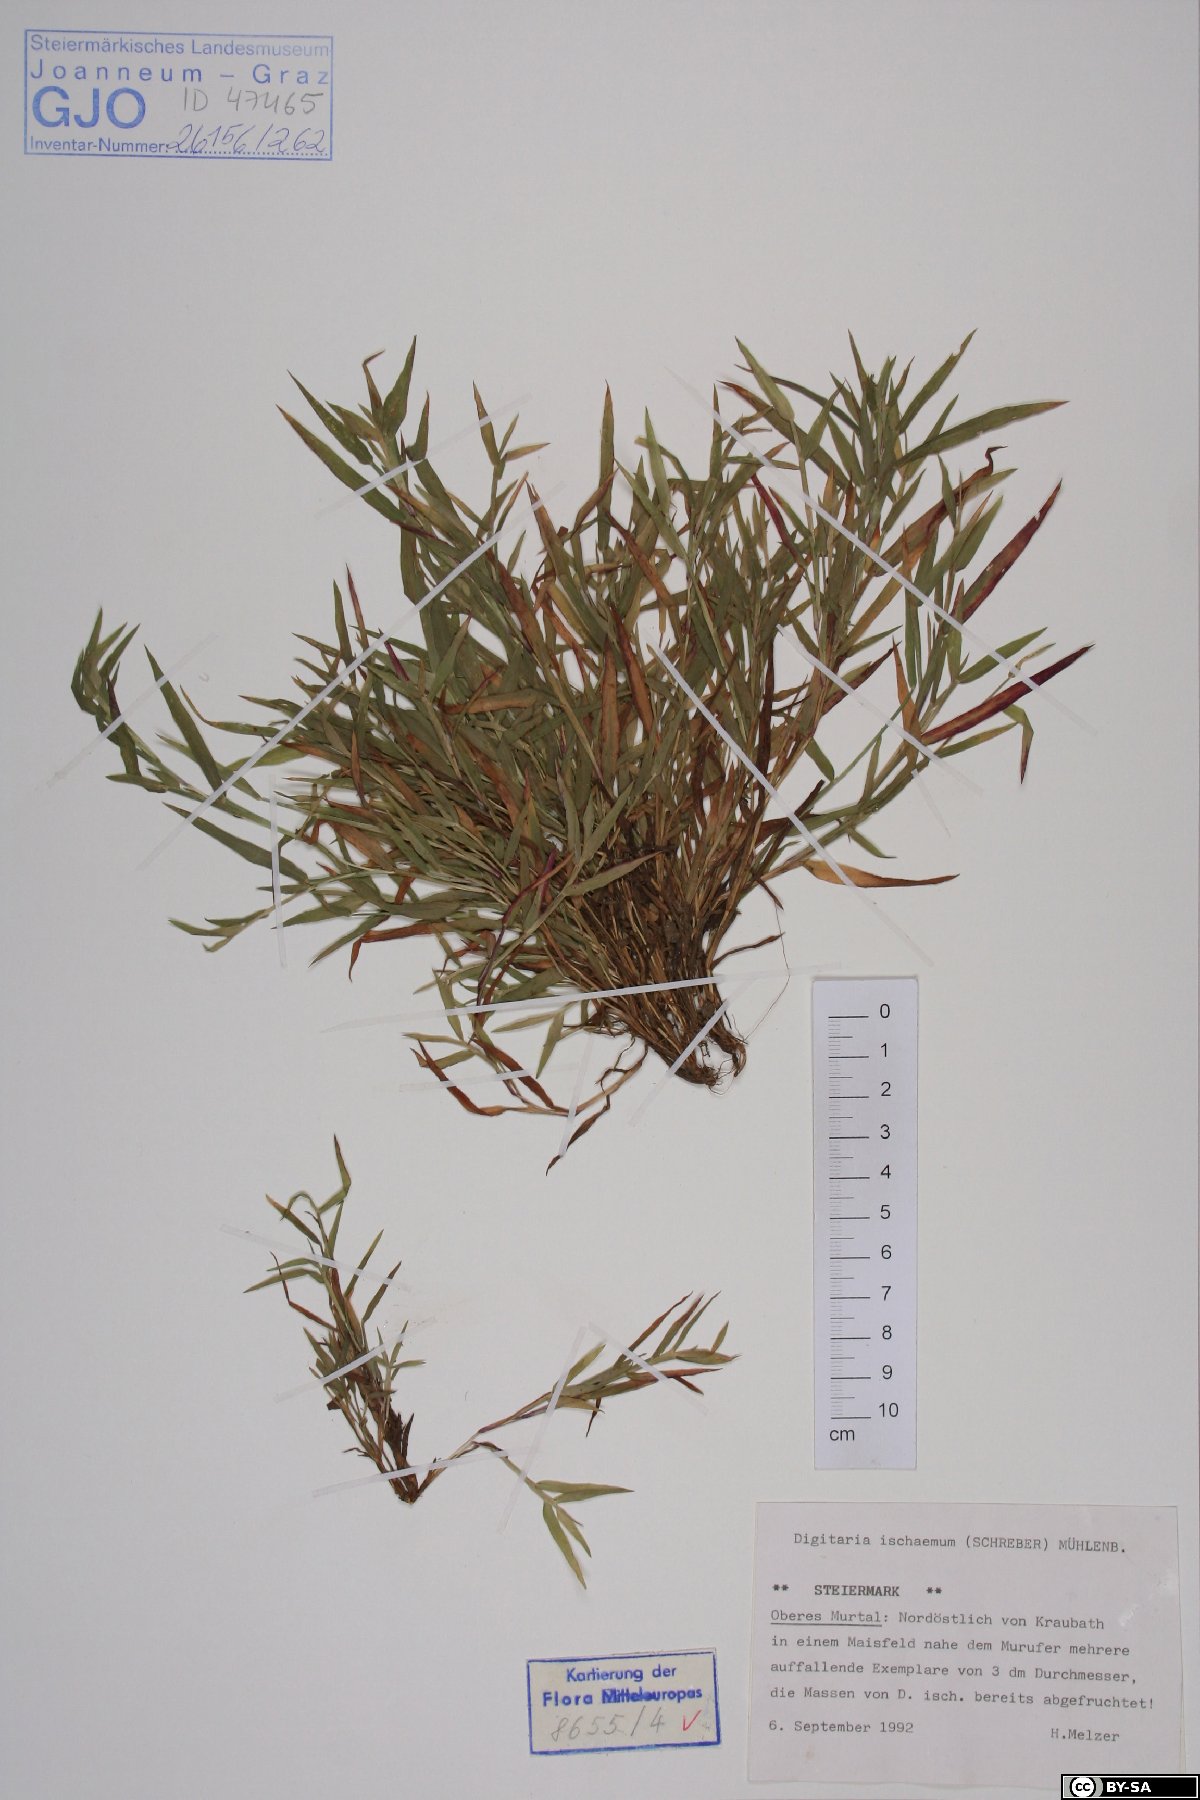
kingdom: Plantae
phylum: Tracheophyta
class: Liliopsida
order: Poales
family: Poaceae
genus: Digitaria
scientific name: Digitaria ischaemum
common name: Smooth crabgrass
